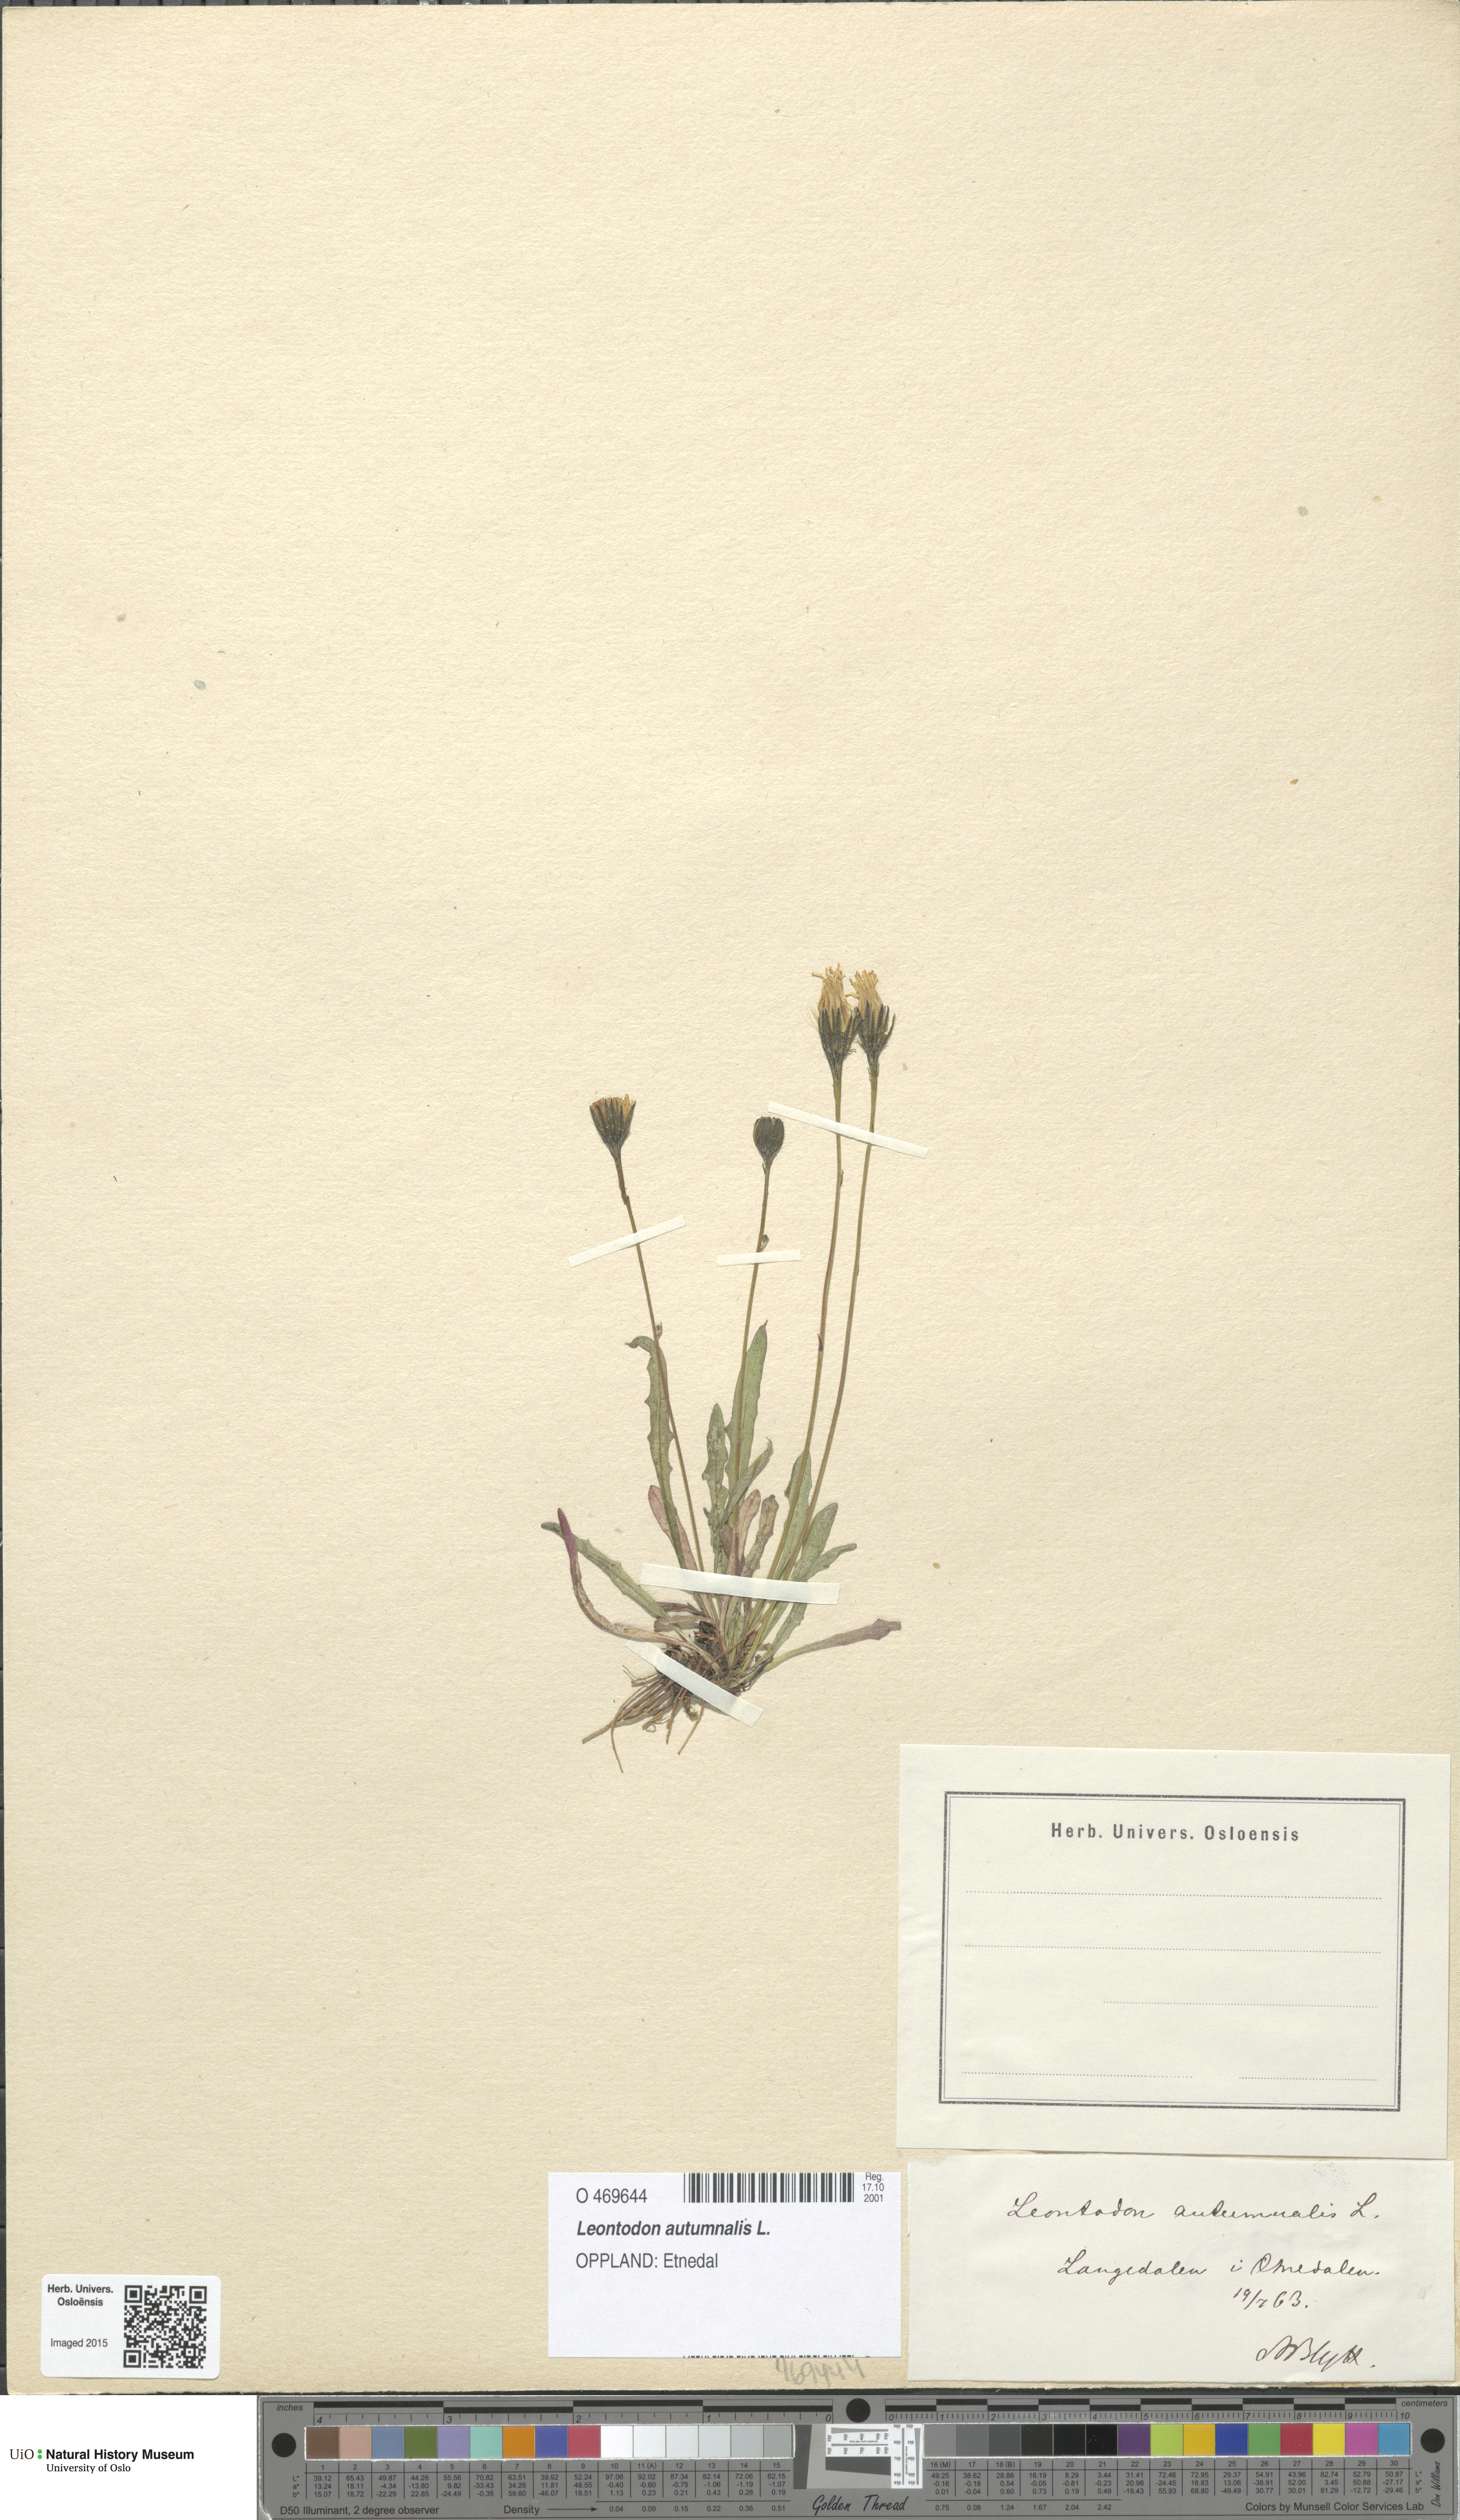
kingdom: Plantae
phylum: Tracheophyta
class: Magnoliopsida
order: Asterales
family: Asteraceae
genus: Scorzoneroides
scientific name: Scorzoneroides autumnalis
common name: Autumn hawkbit
